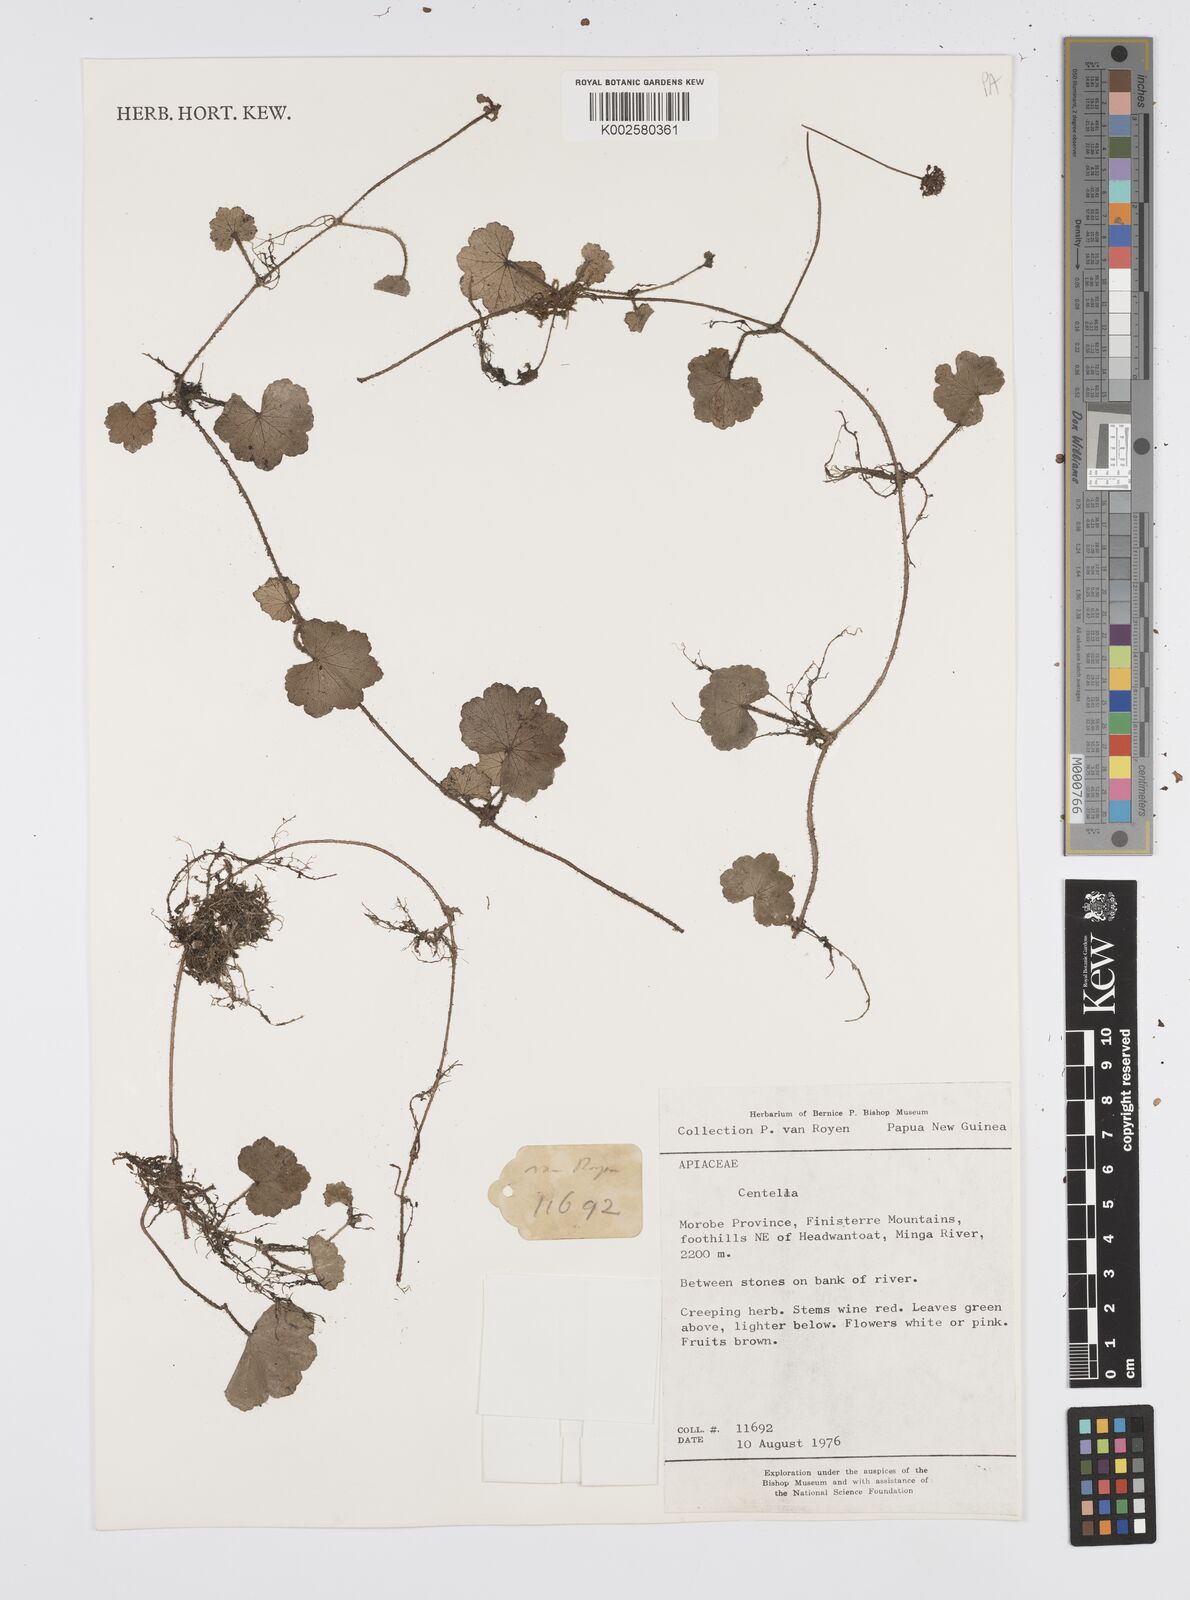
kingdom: Plantae
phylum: Tracheophyta
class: Magnoliopsida
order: Apiales
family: Apiaceae
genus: Centella
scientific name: Centella
